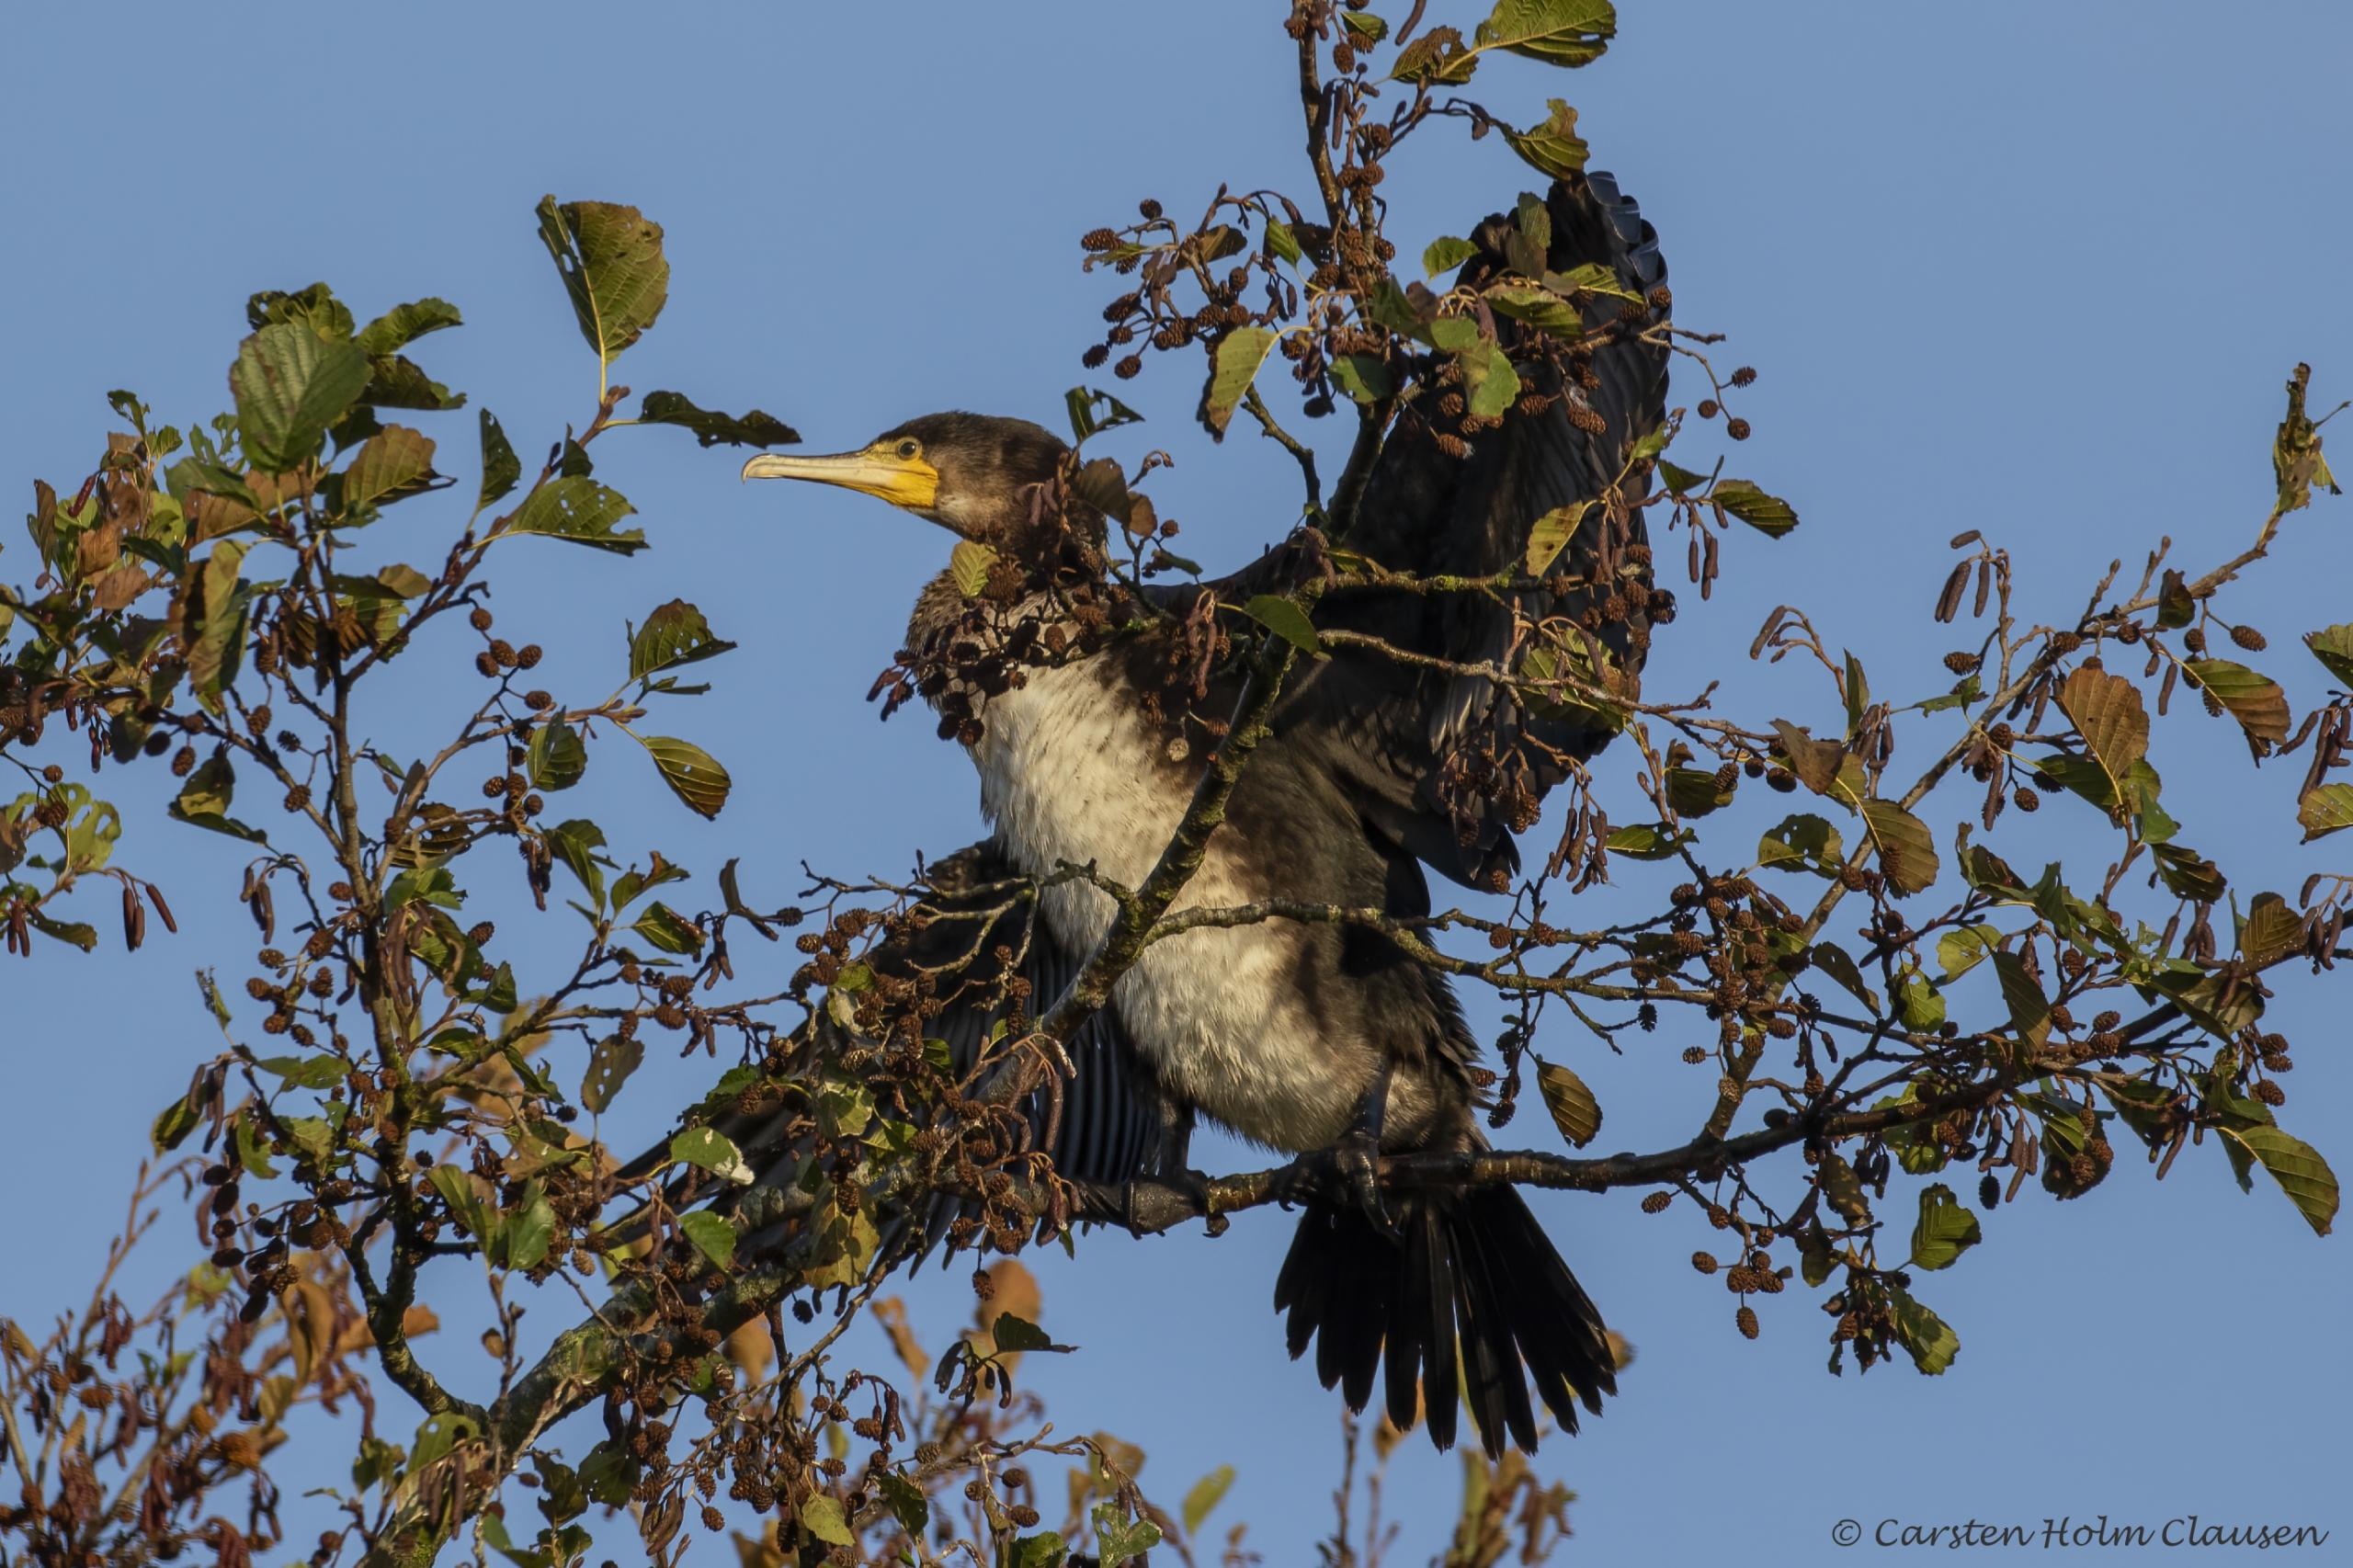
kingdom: Animalia
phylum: Chordata
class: Aves
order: Suliformes
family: Phalacrocoracidae
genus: Phalacrocorax
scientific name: Phalacrocorax carbo
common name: Skarv
